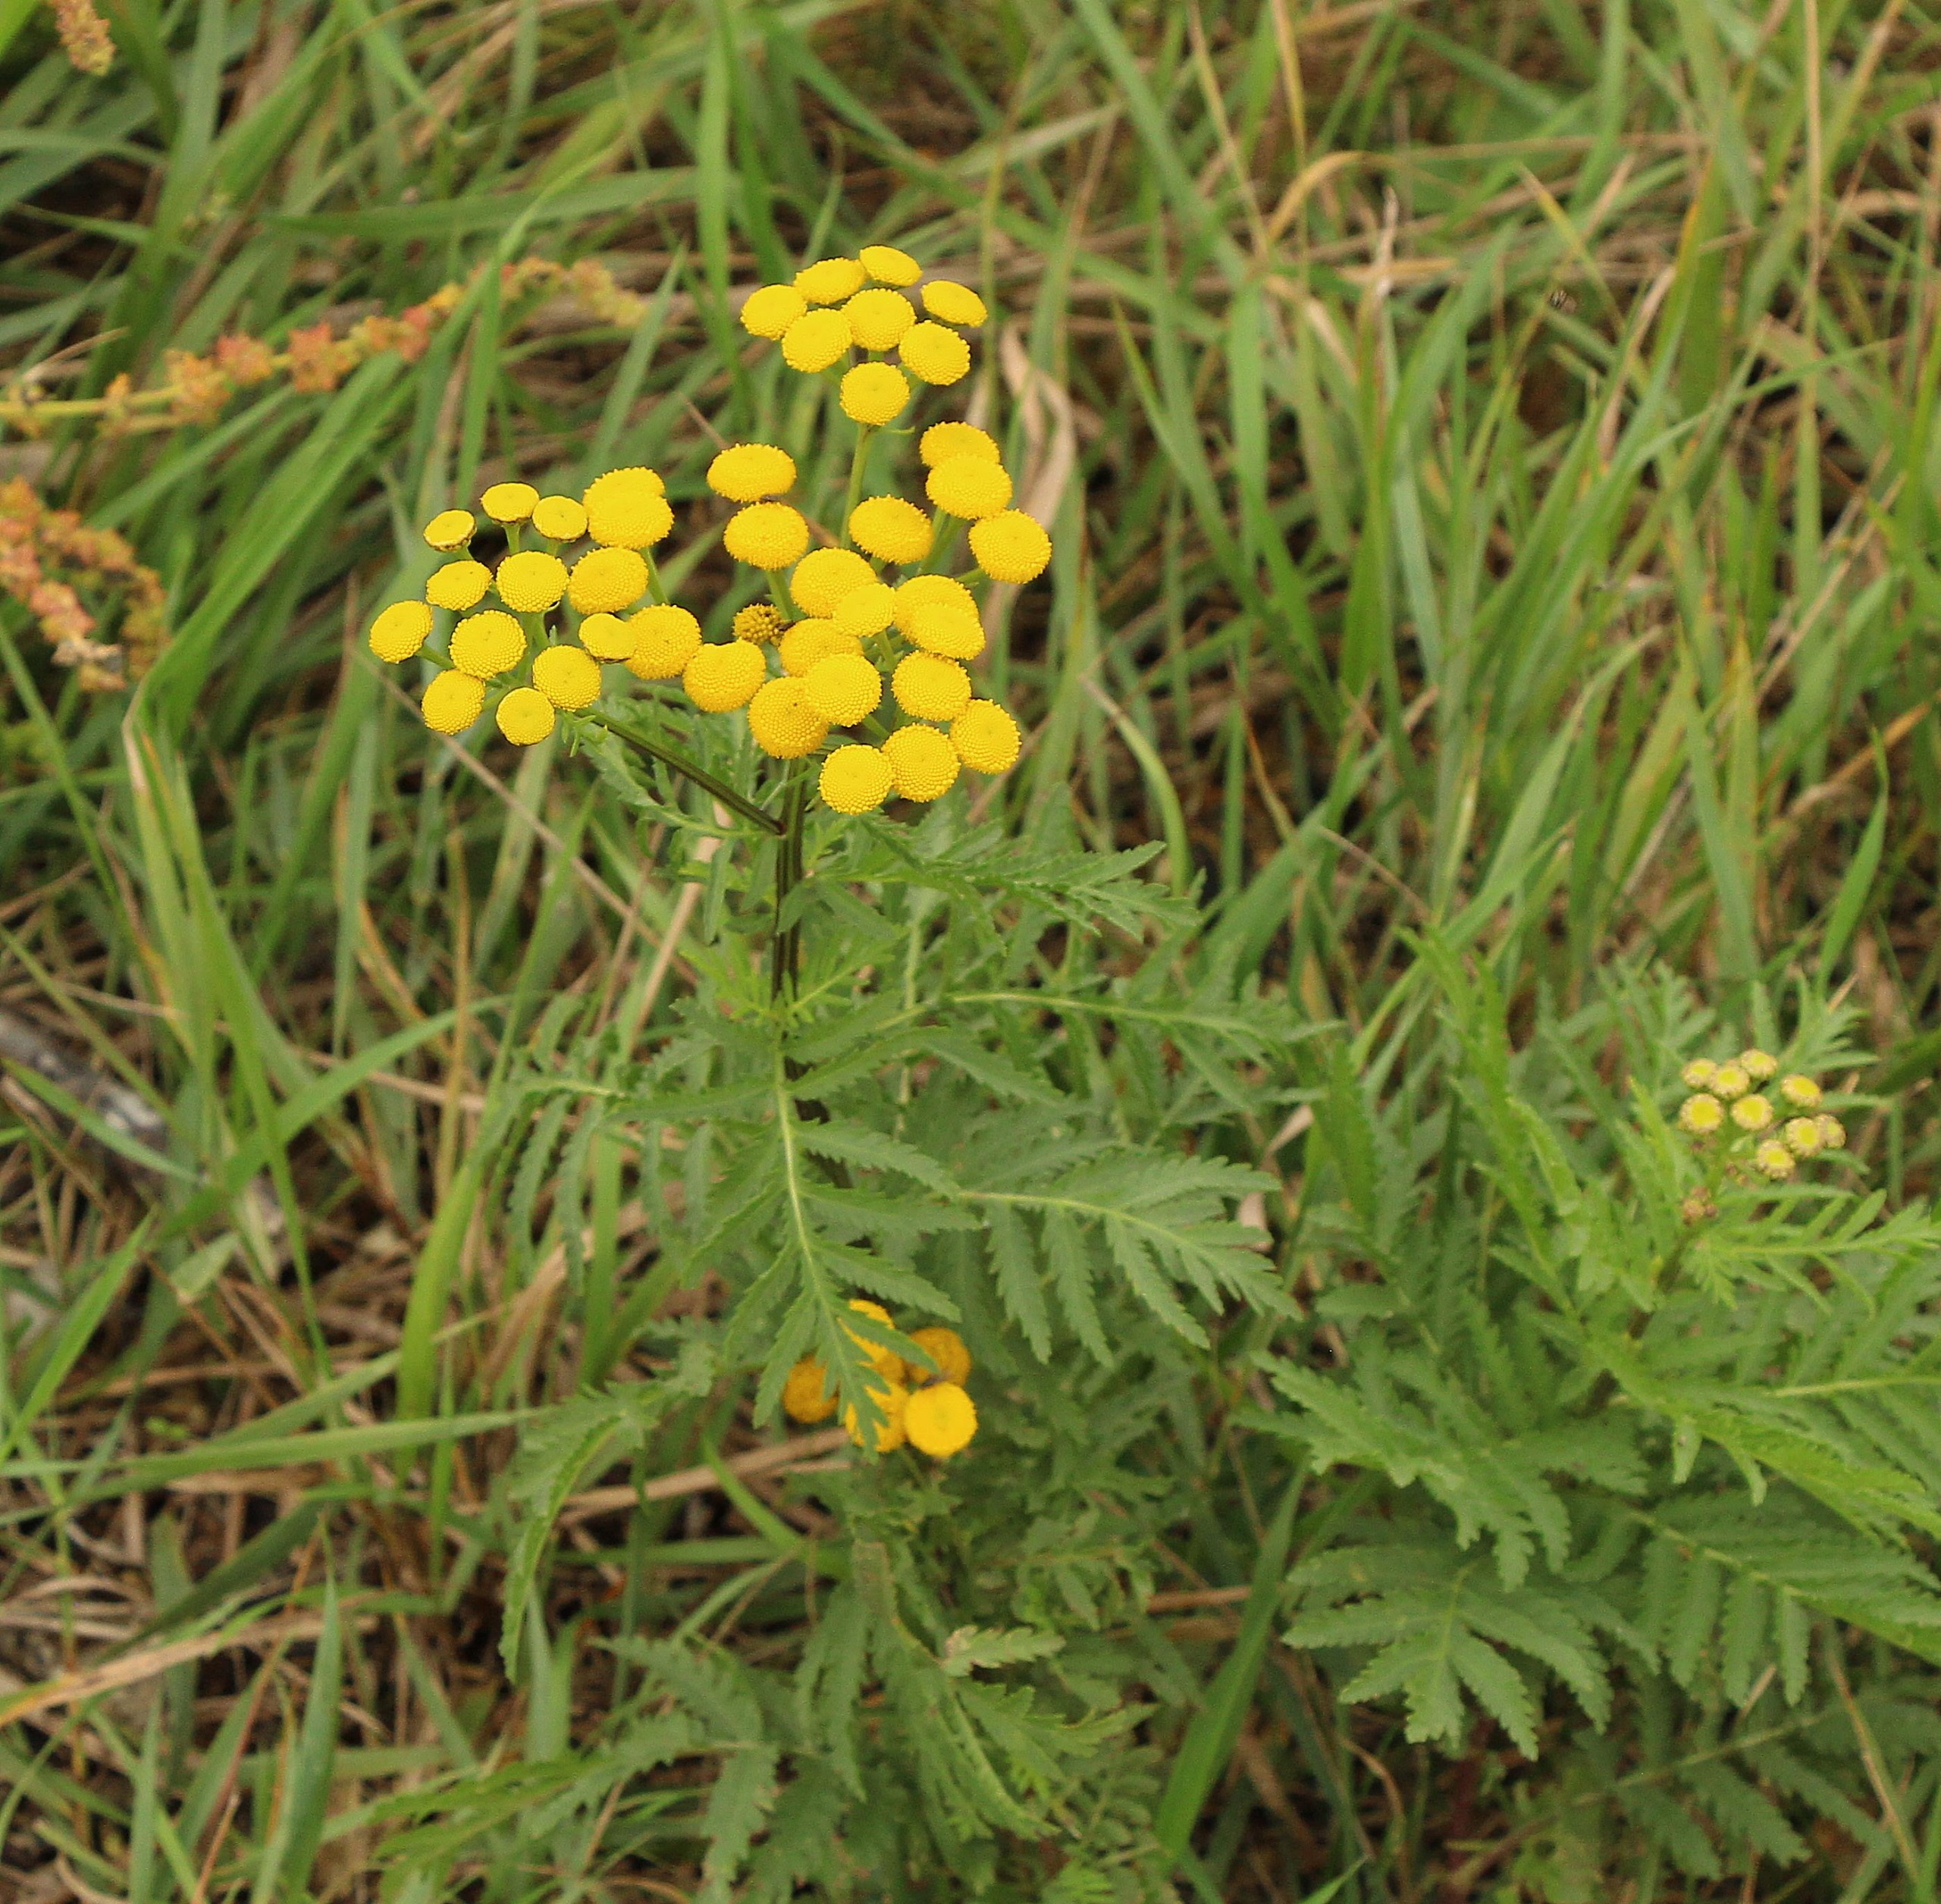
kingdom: Plantae
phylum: Tracheophyta
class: Magnoliopsida
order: Asterales
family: Asteraceae
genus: Tanacetum
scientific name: Tanacetum vulgare
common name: Rejnfan
